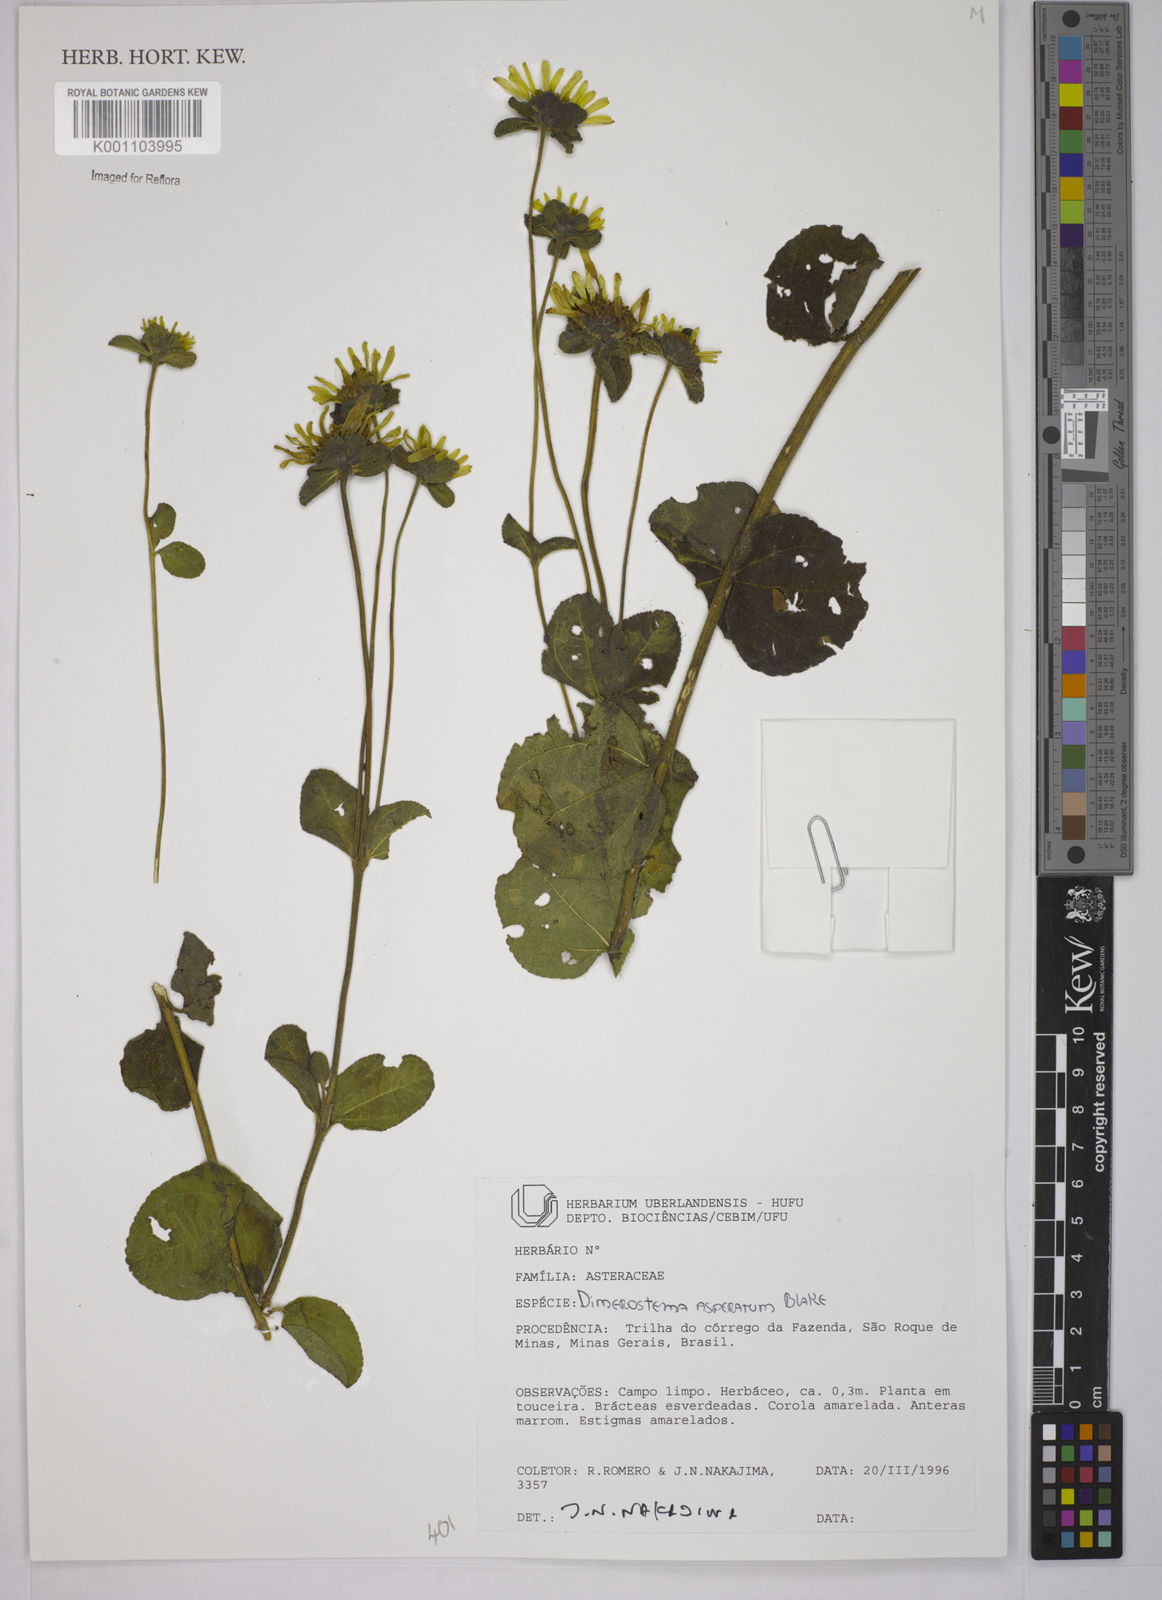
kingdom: Plantae
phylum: Tracheophyta
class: Magnoliopsida
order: Asterales
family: Asteraceae
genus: Dimerostemma
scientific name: Dimerostemma asperatum
